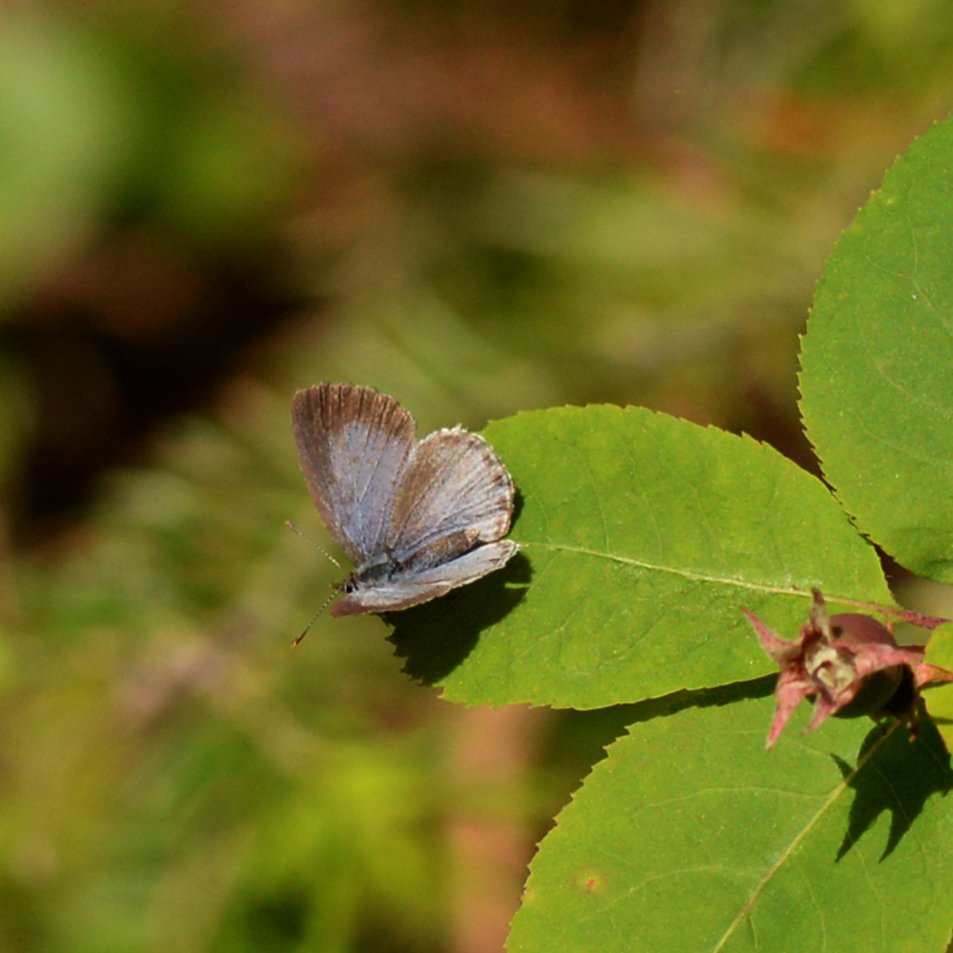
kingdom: Animalia
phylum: Arthropoda
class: Insecta
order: Lepidoptera
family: Lycaenidae
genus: Celastrina
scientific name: Celastrina lucia
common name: Northern Spring Azure
